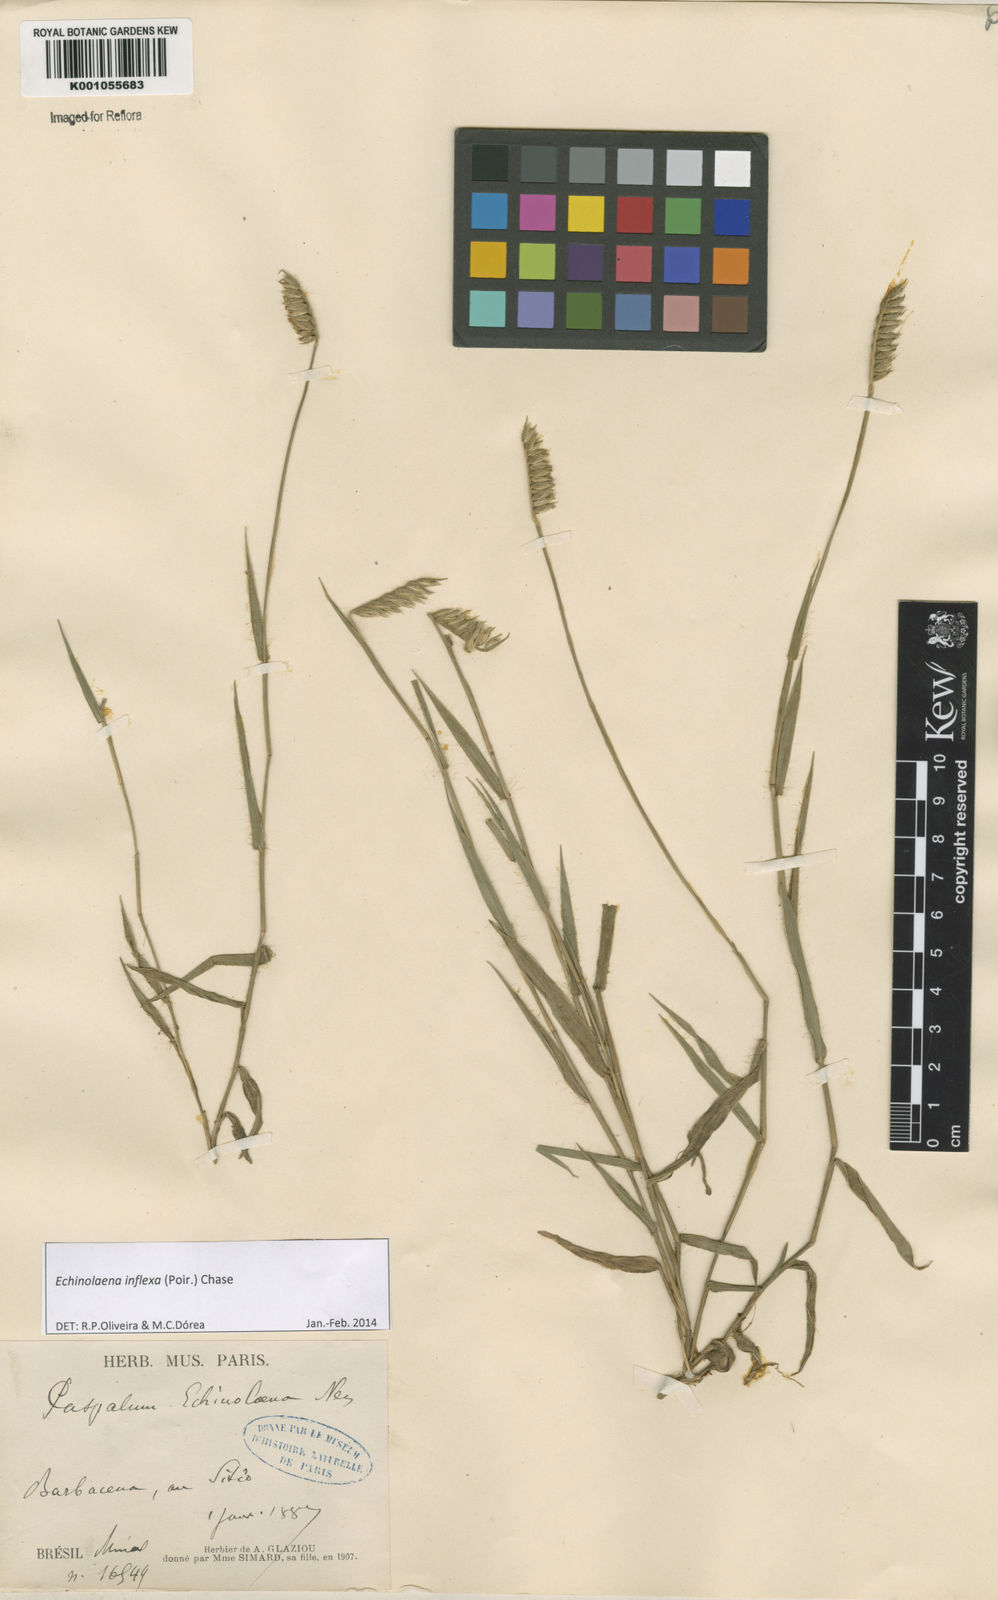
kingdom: Plantae
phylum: Tracheophyta
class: Liliopsida
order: Poales
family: Poaceae
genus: Echinolaena
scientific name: Echinolaena inflexa
